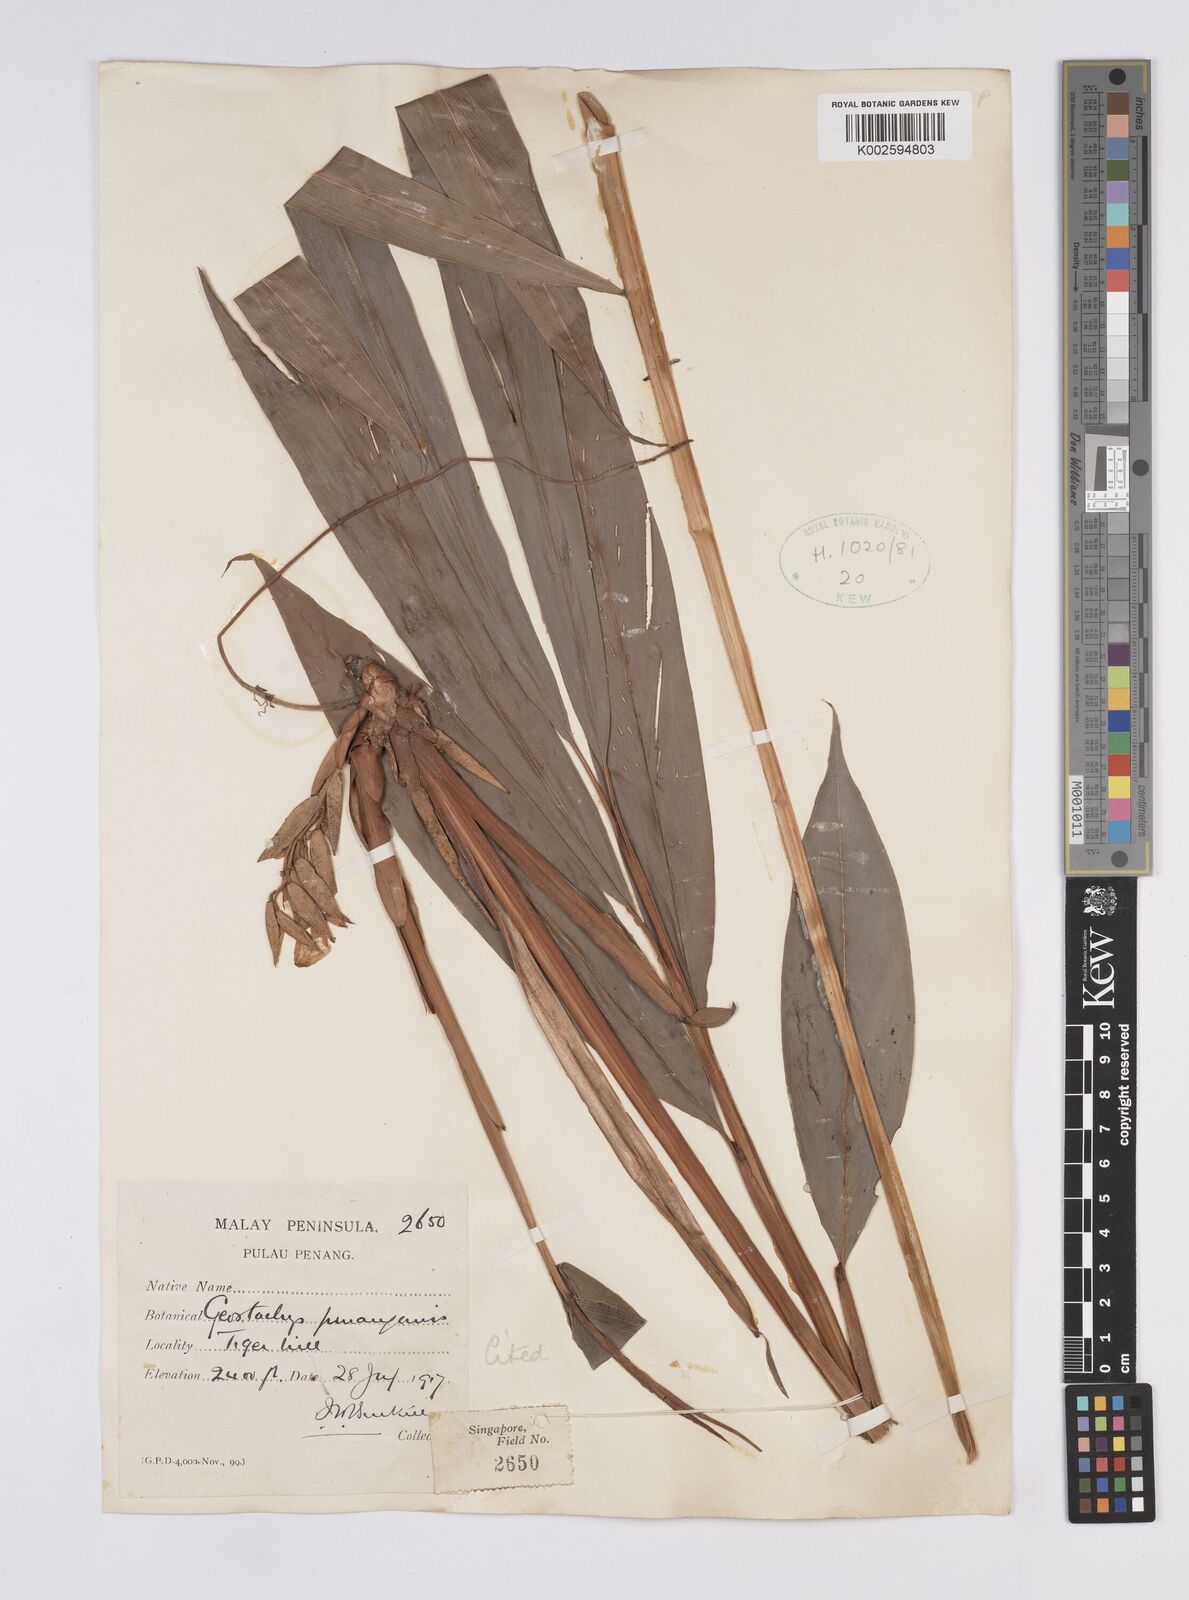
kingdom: Plantae
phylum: Tracheophyta
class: Liliopsida
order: Zingiberales
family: Zingiberaceae
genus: Geostachys
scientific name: Geostachys penangensis
